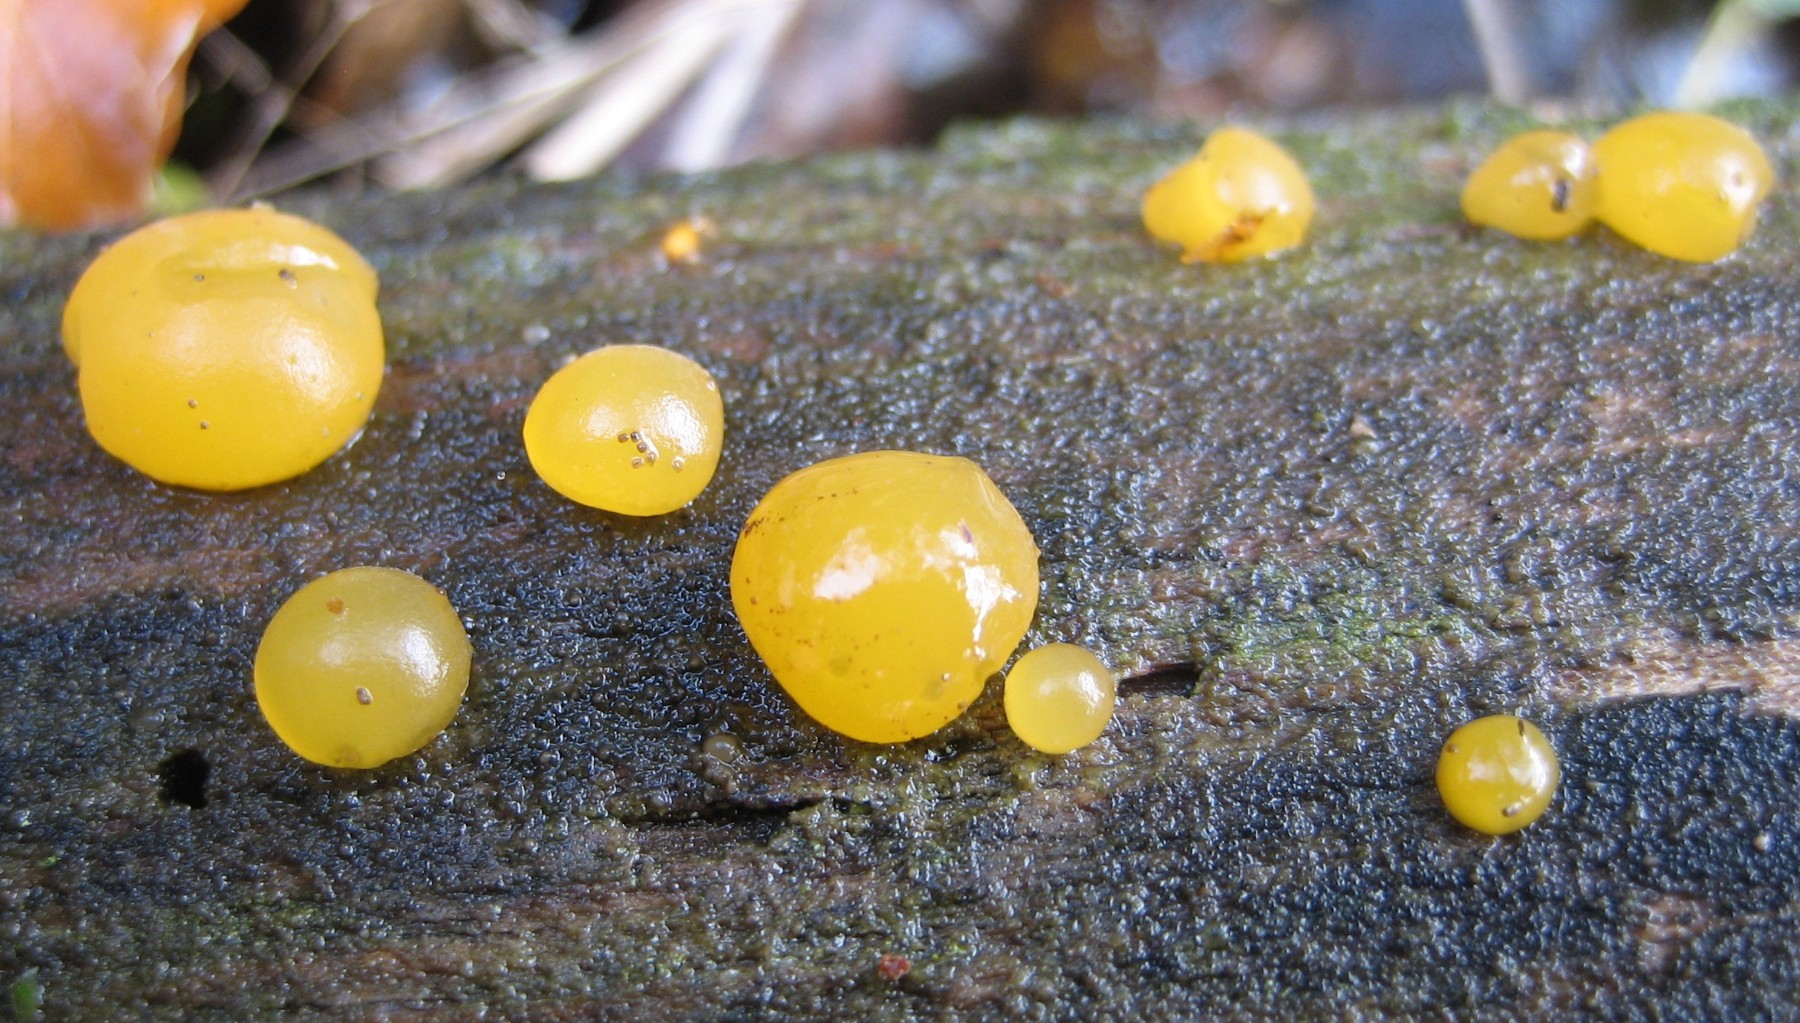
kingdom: Fungi
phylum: Basidiomycota
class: Dacrymycetes
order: Dacrymycetales
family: Dacrymycetaceae
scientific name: Dacrymycetaceae
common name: tåresvampfamilien
